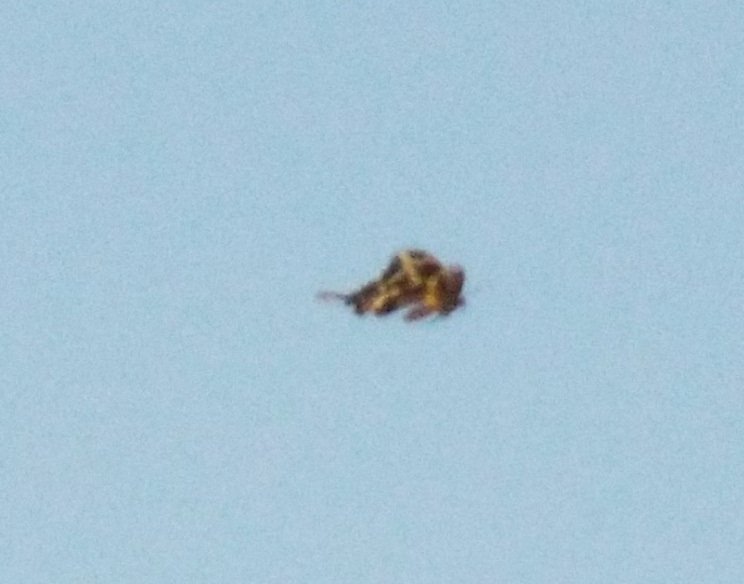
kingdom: Animalia
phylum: Arthropoda
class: Insecta
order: Lepidoptera
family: Papilionidae
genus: Papilio
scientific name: Papilio cresphontes
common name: Eastern Giant Swallowtail
